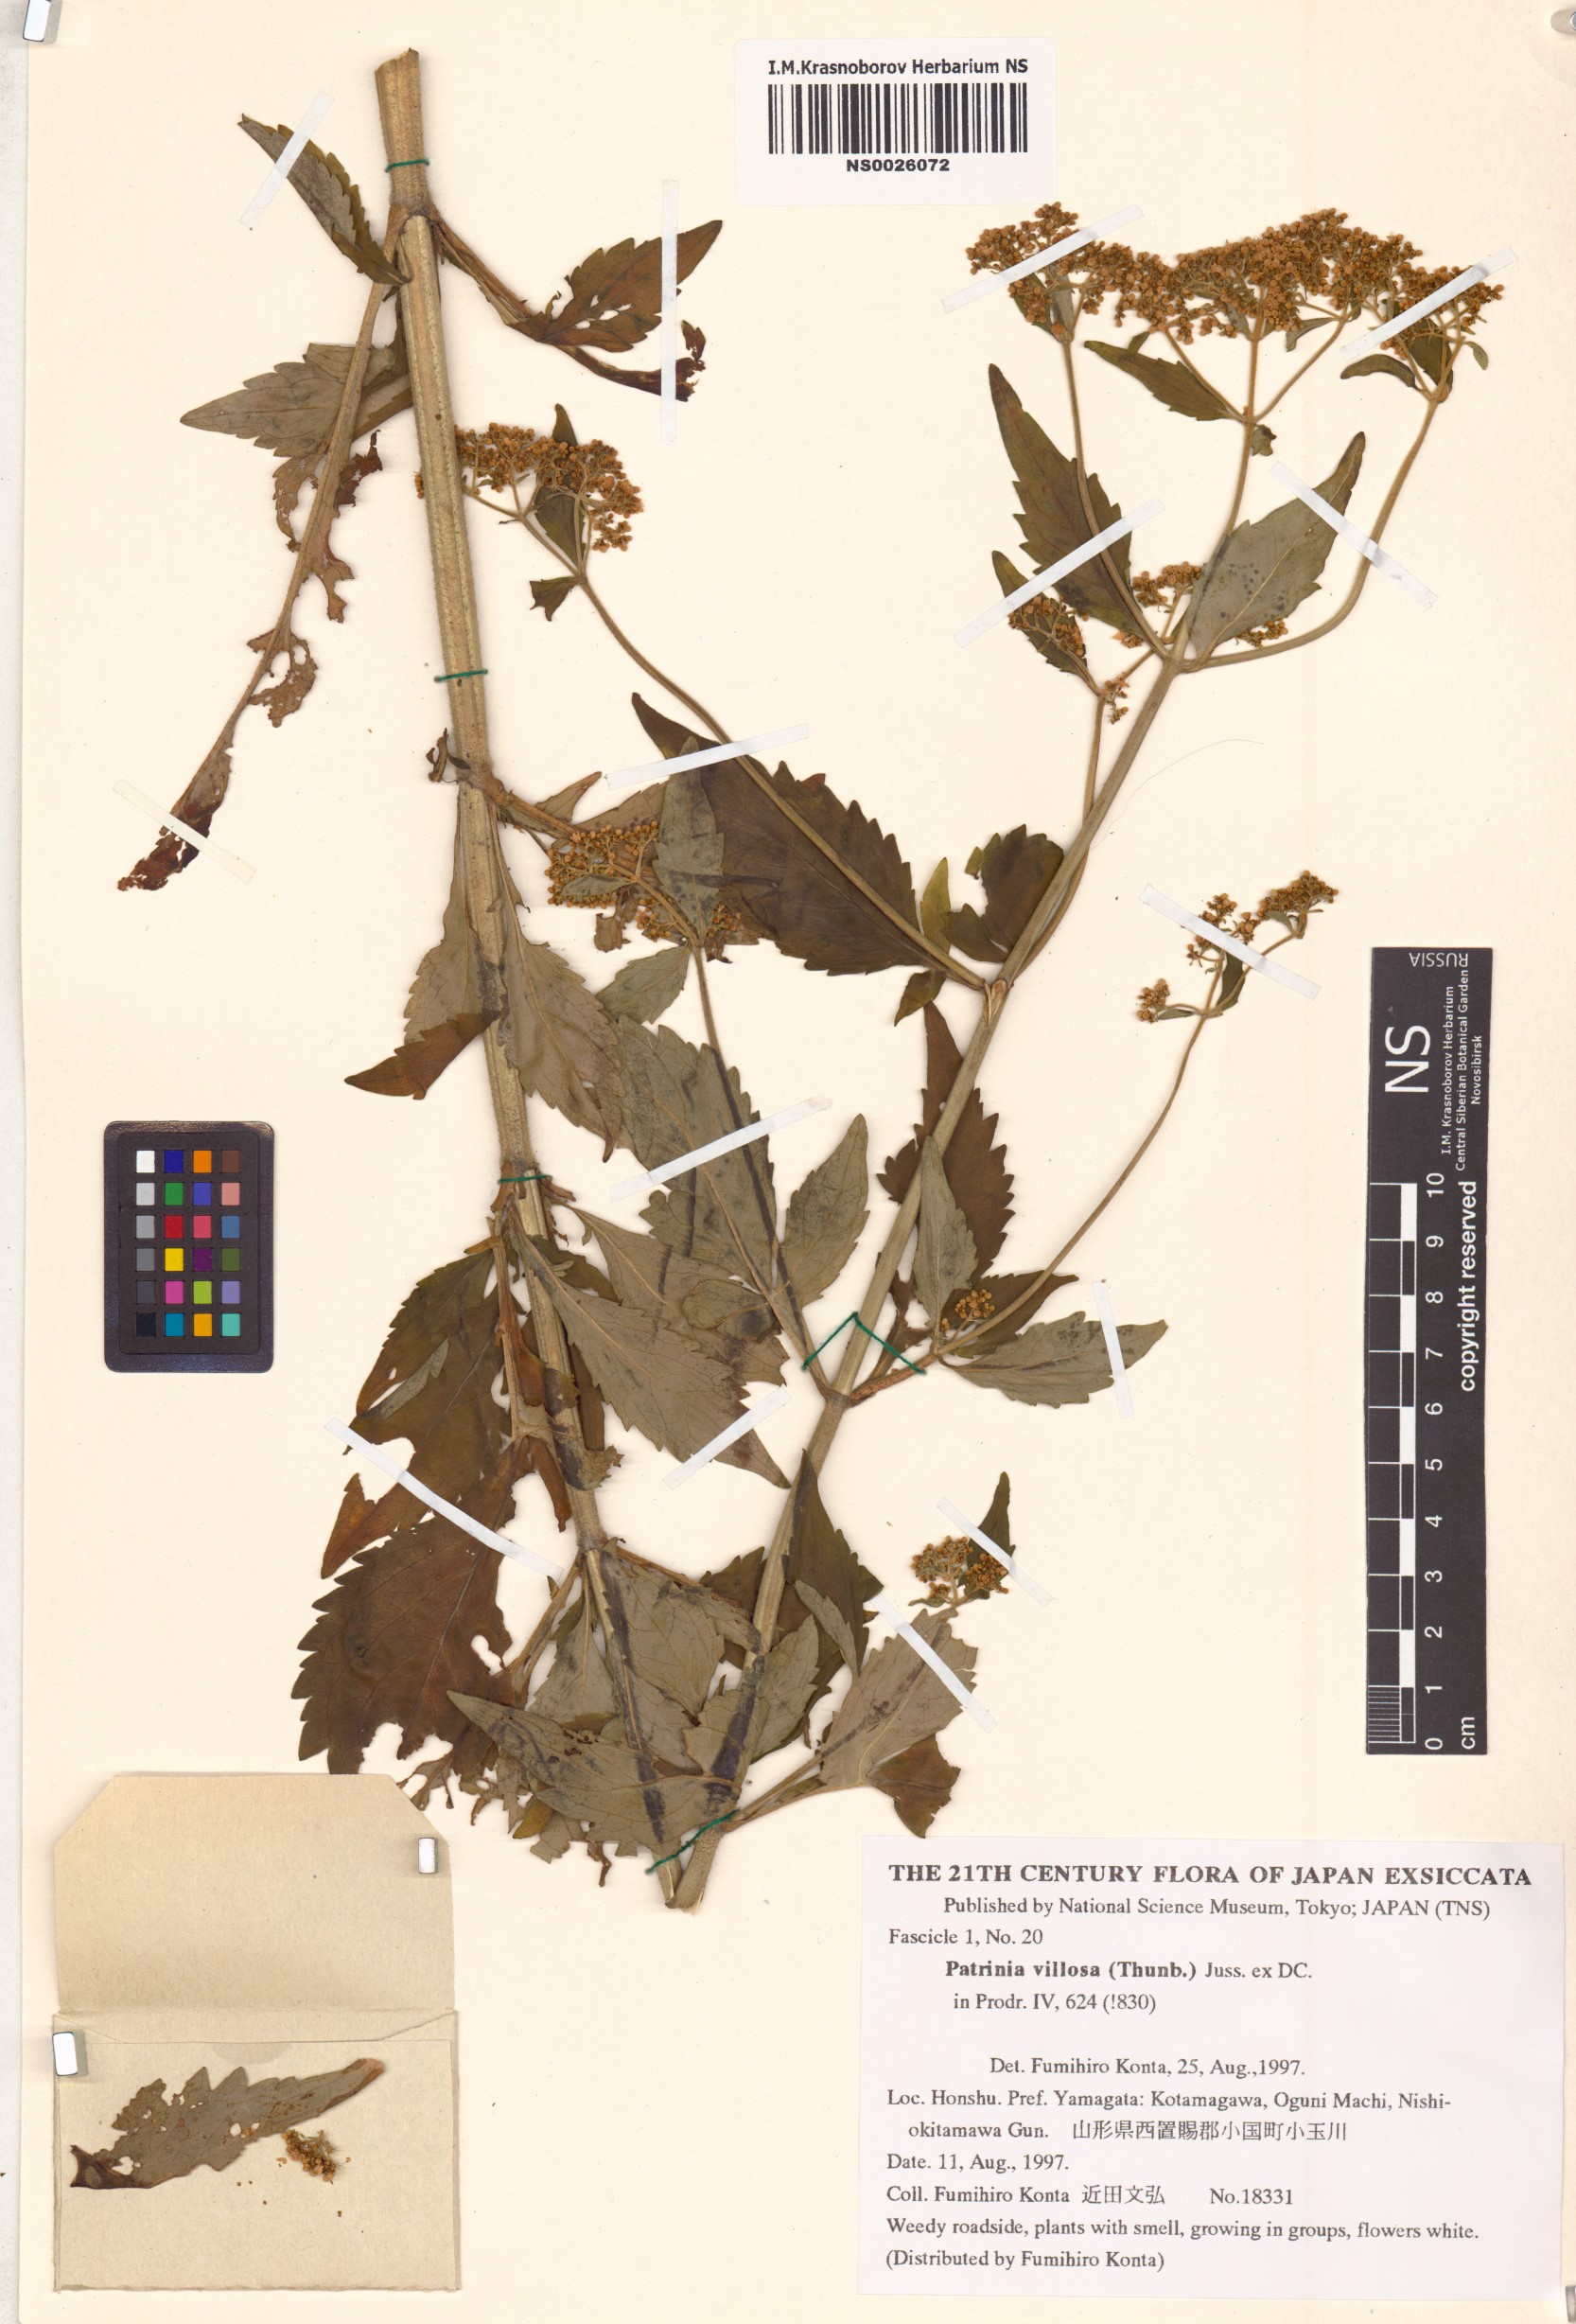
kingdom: Plantae
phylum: Tracheophyta
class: Magnoliopsida
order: Dipsacales
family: Caprifoliaceae
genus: Patrinia
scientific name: Patrinia villosa
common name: Patrinia
